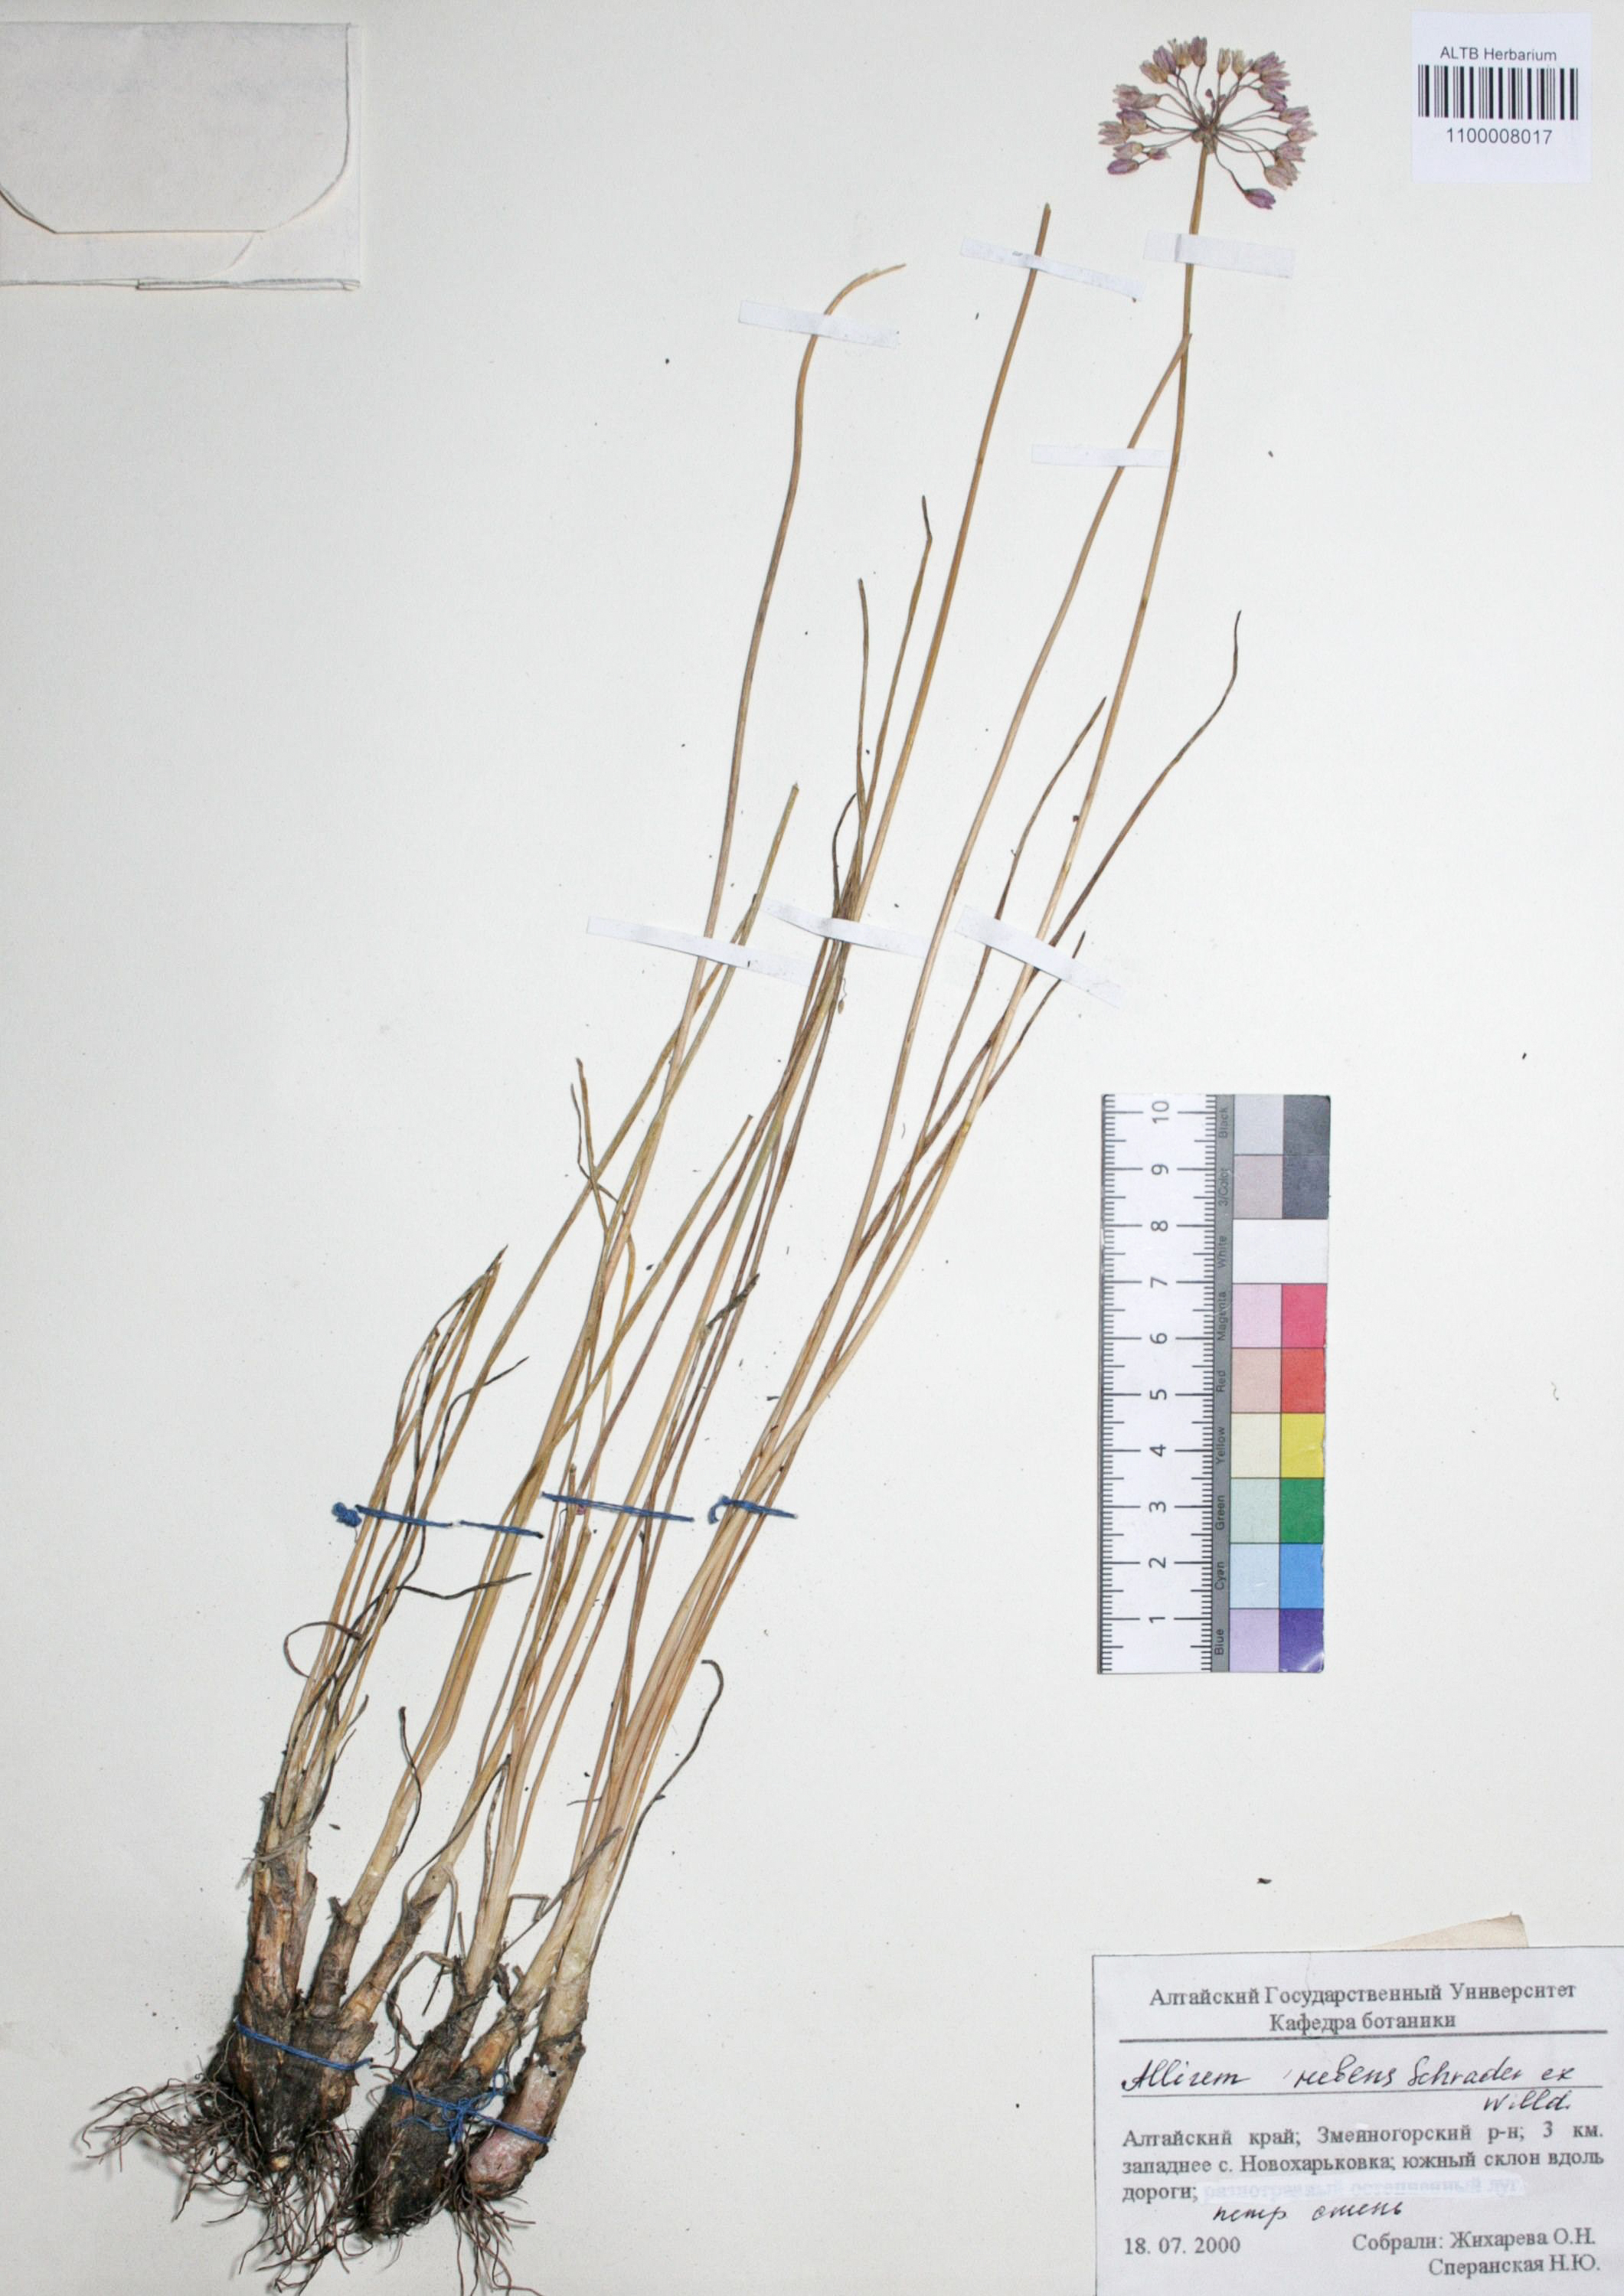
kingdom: Plantae
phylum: Tracheophyta
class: Liliopsida
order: Asparagales
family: Amaryllidaceae
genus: Allium
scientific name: Allium rubens
